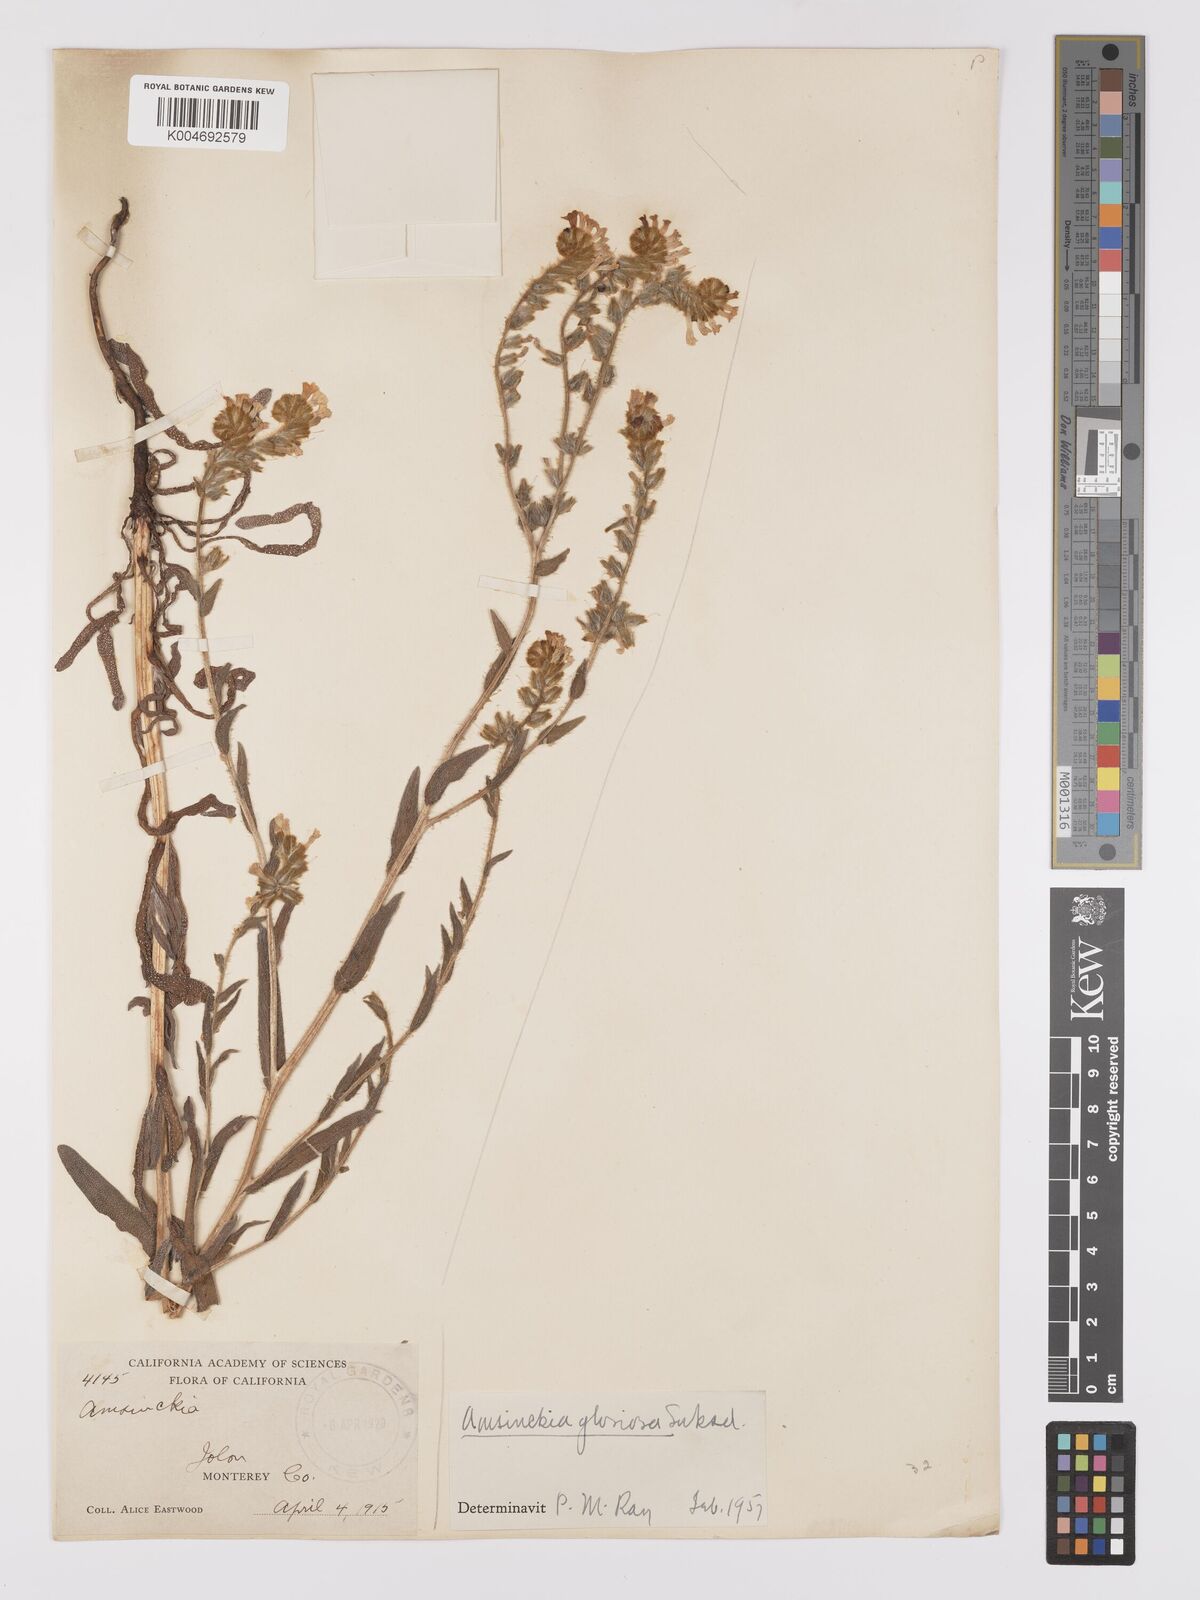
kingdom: Plantae
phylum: Tracheophyta
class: Magnoliopsida
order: Boraginales
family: Boraginaceae
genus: Amsinckia
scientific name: Amsinckia tessellata
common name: Tessellate fiddleneck
